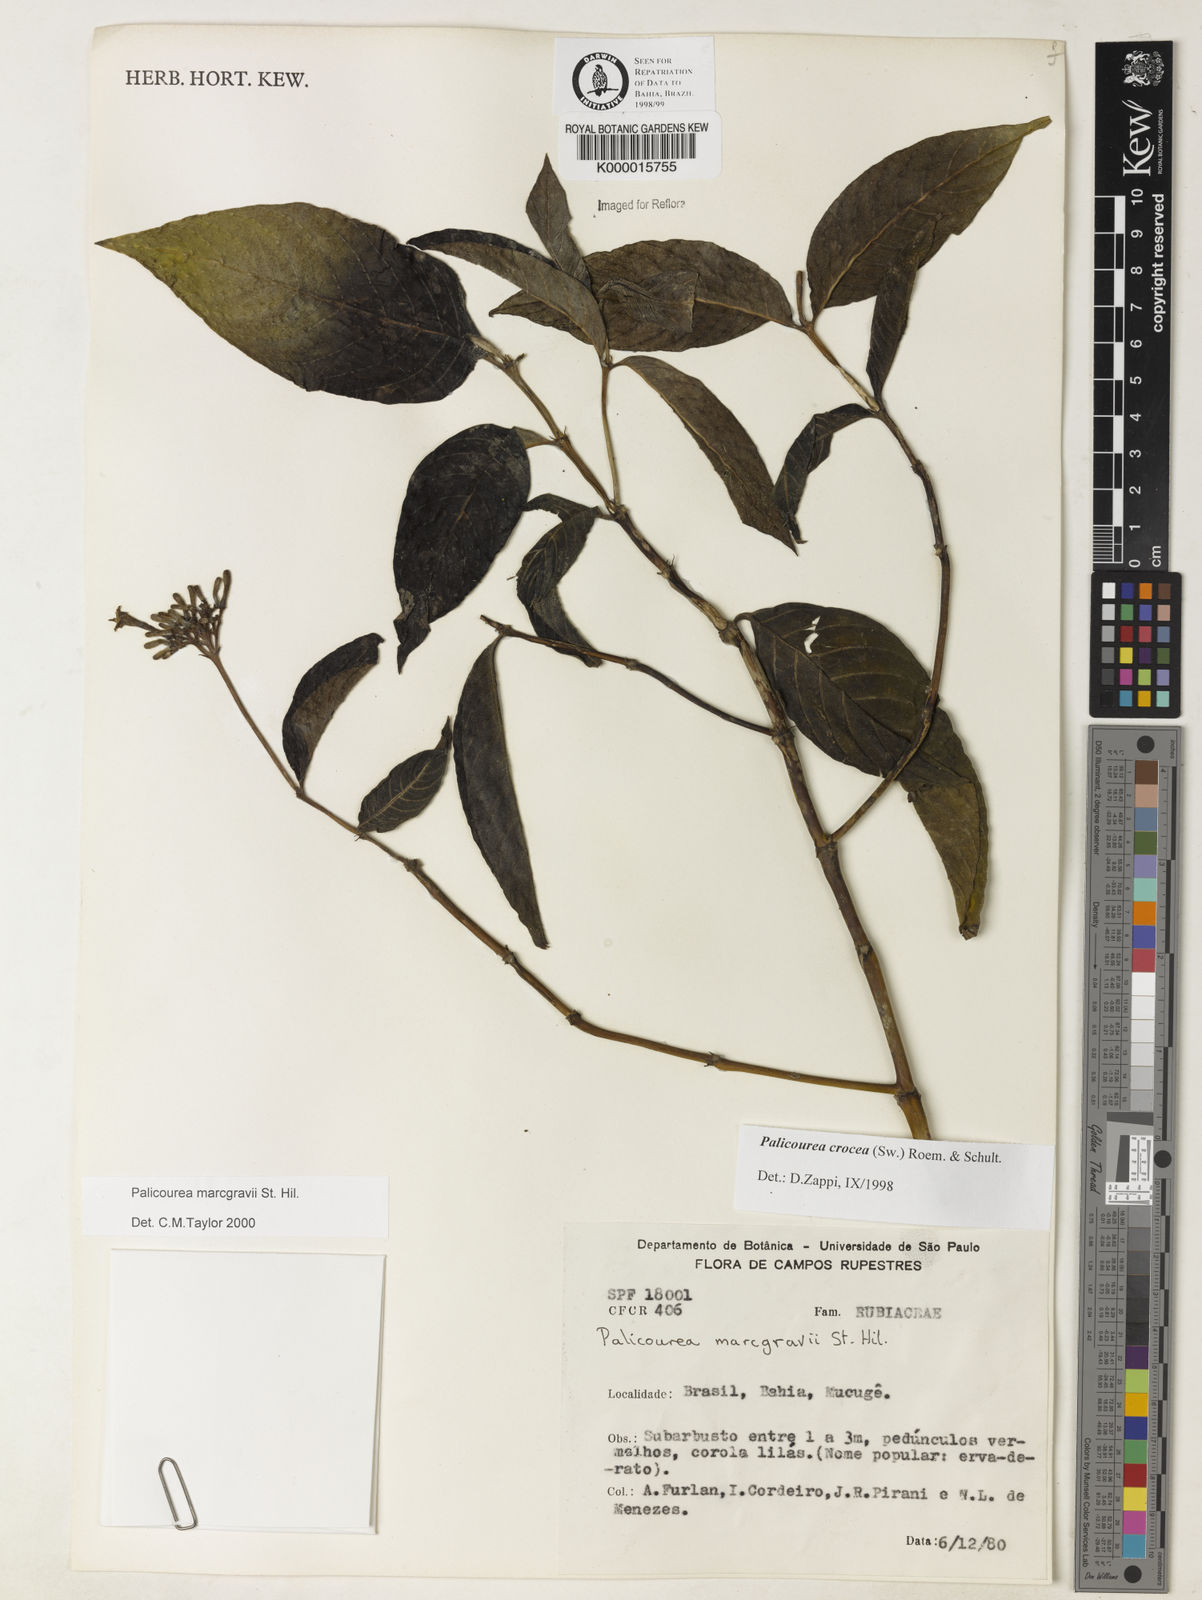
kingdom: Plantae
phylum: Tracheophyta
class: Magnoliopsida
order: Gentianales
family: Rubiaceae
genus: Palicourea
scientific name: Palicourea marcgravii
